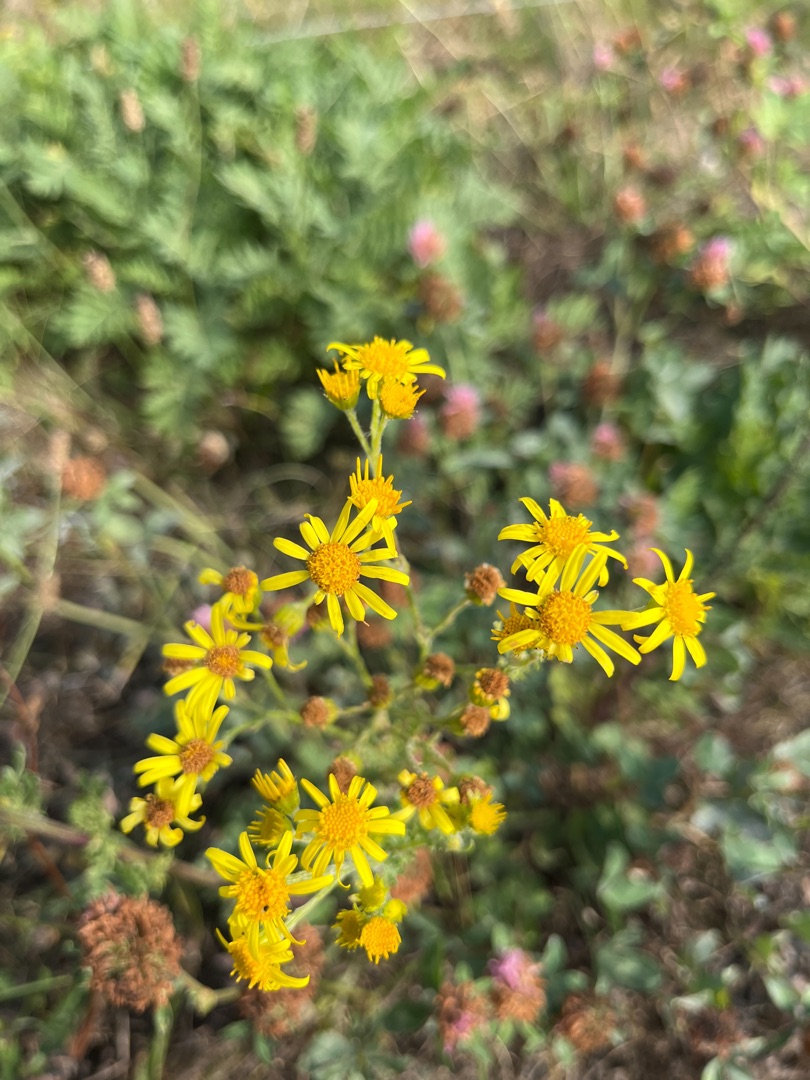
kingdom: Plantae
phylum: Tracheophyta
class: Magnoliopsida
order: Asterales
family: Asteraceae
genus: Senecio
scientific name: Senecio
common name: Brandbægerslægten
